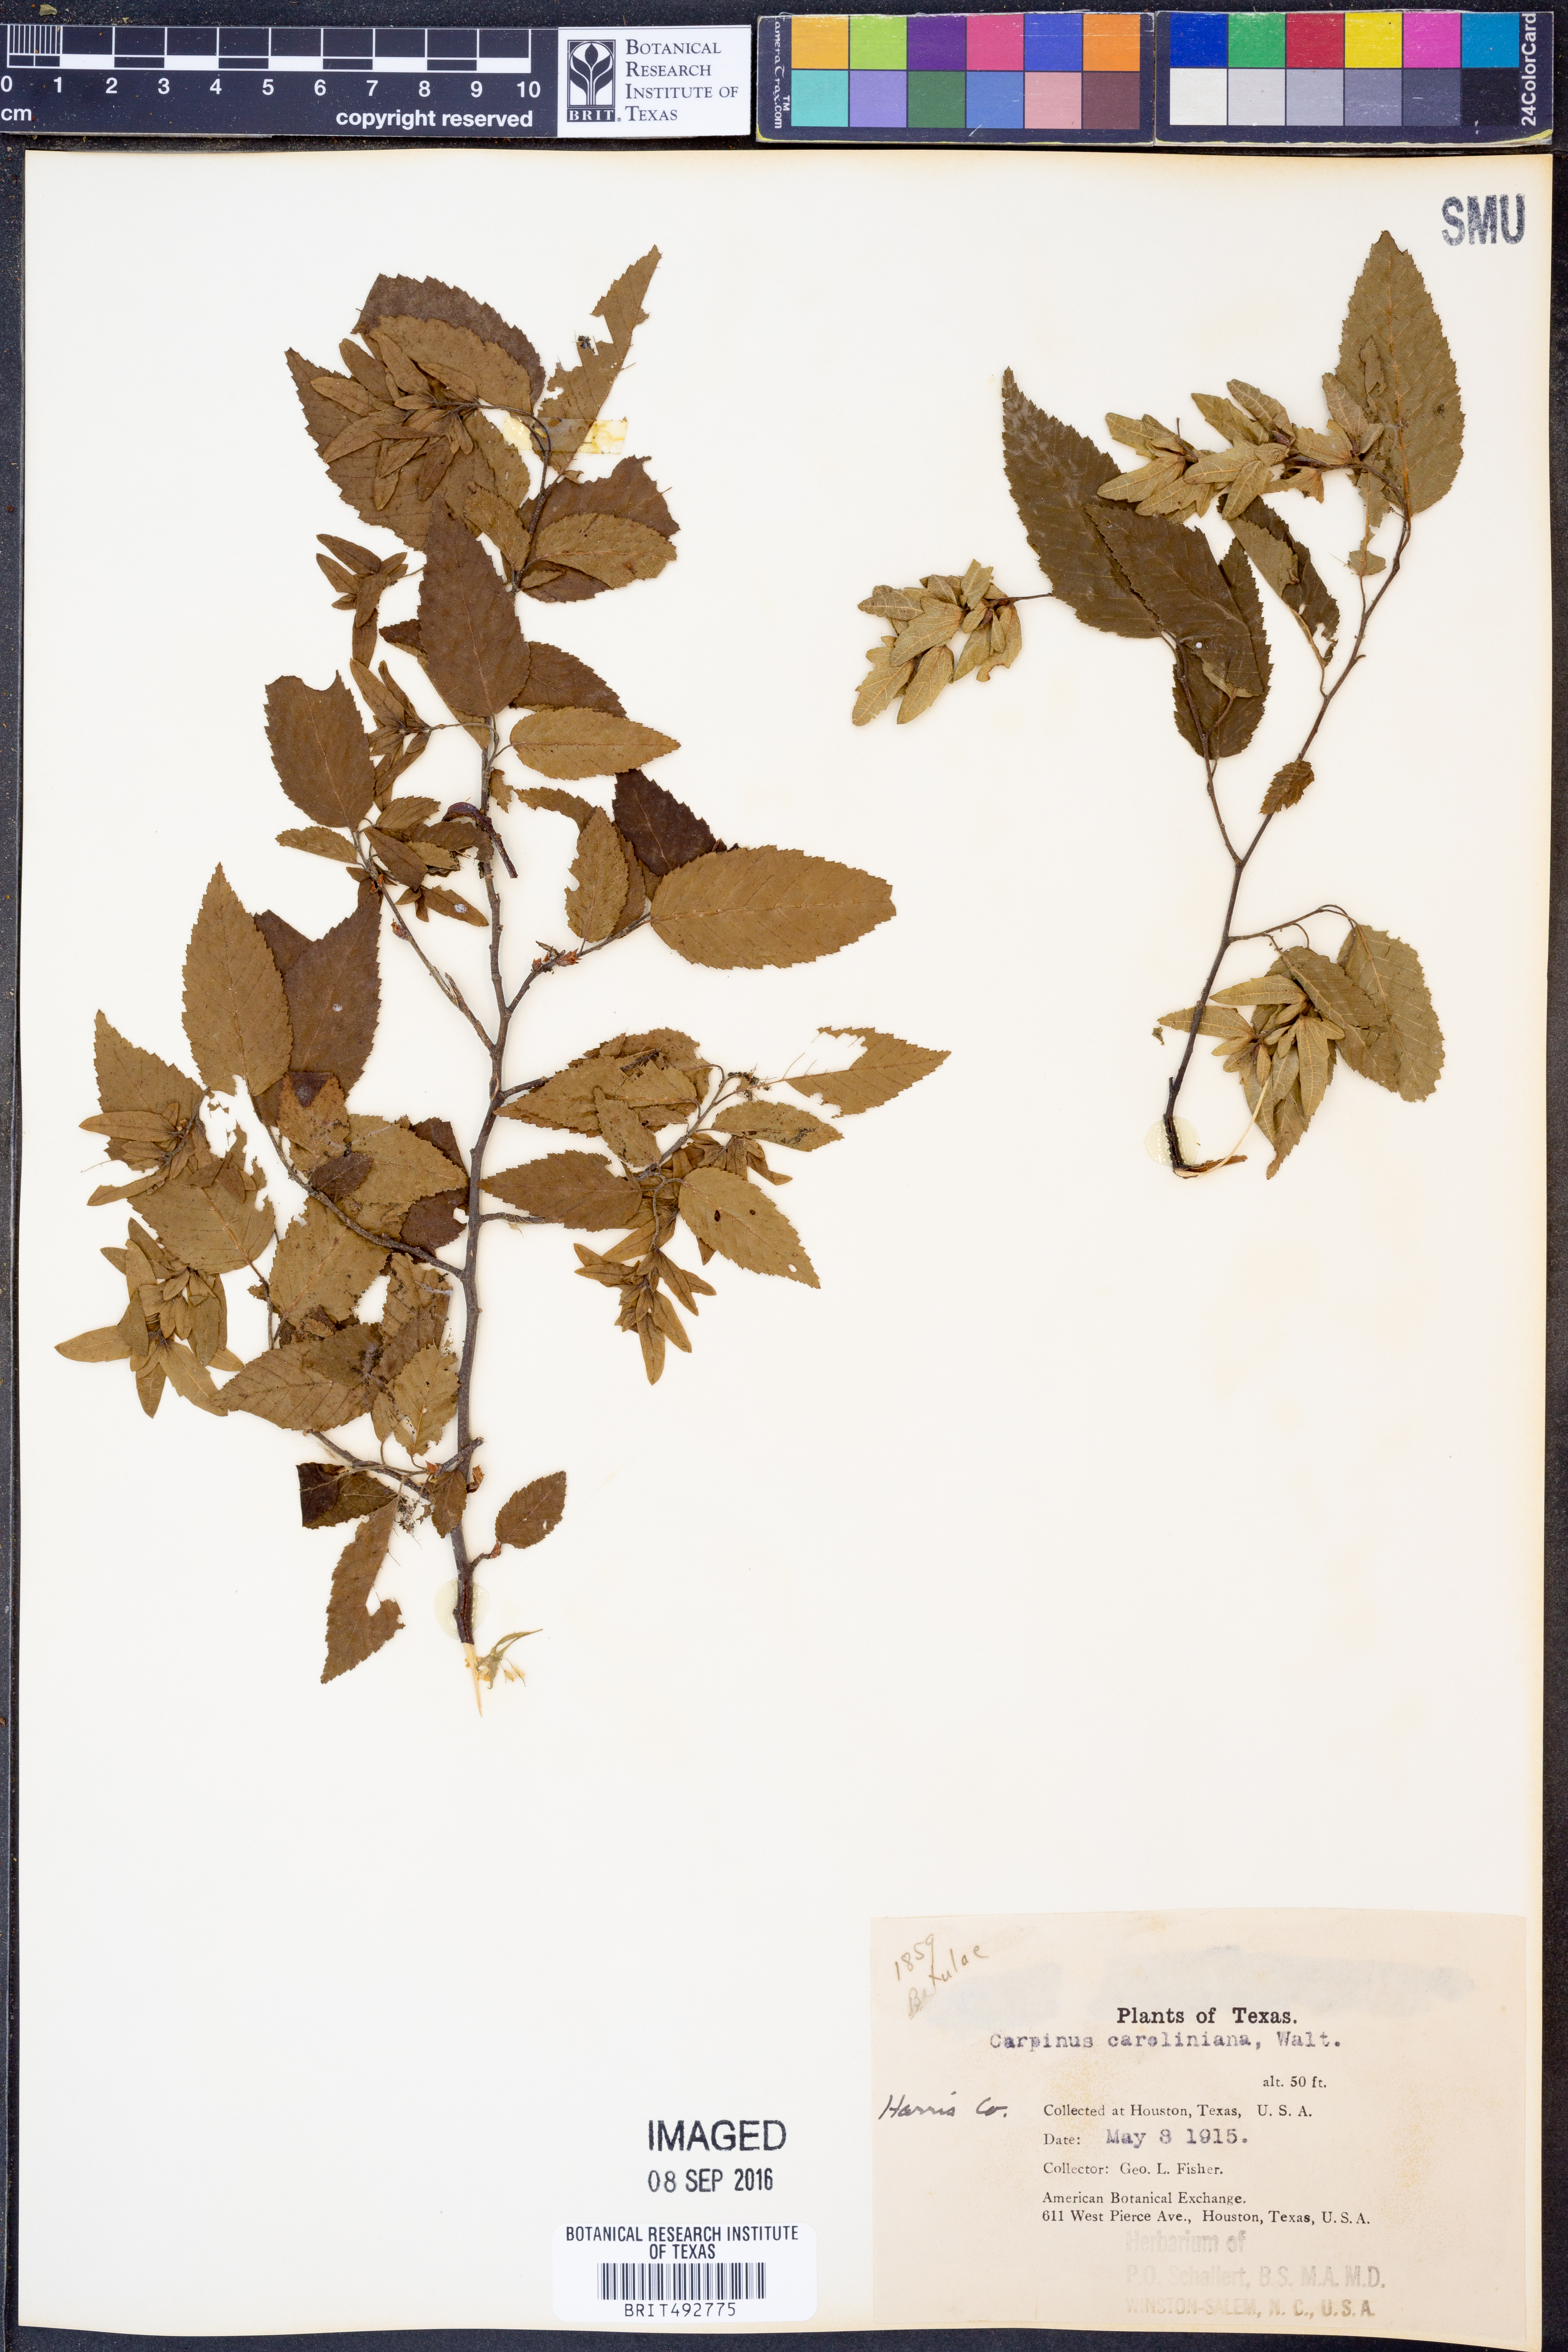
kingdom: Plantae
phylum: Tracheophyta
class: Magnoliopsida
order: Fagales
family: Betulaceae
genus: Carpinus
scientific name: Carpinus caroliniana
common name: American hornbeam
